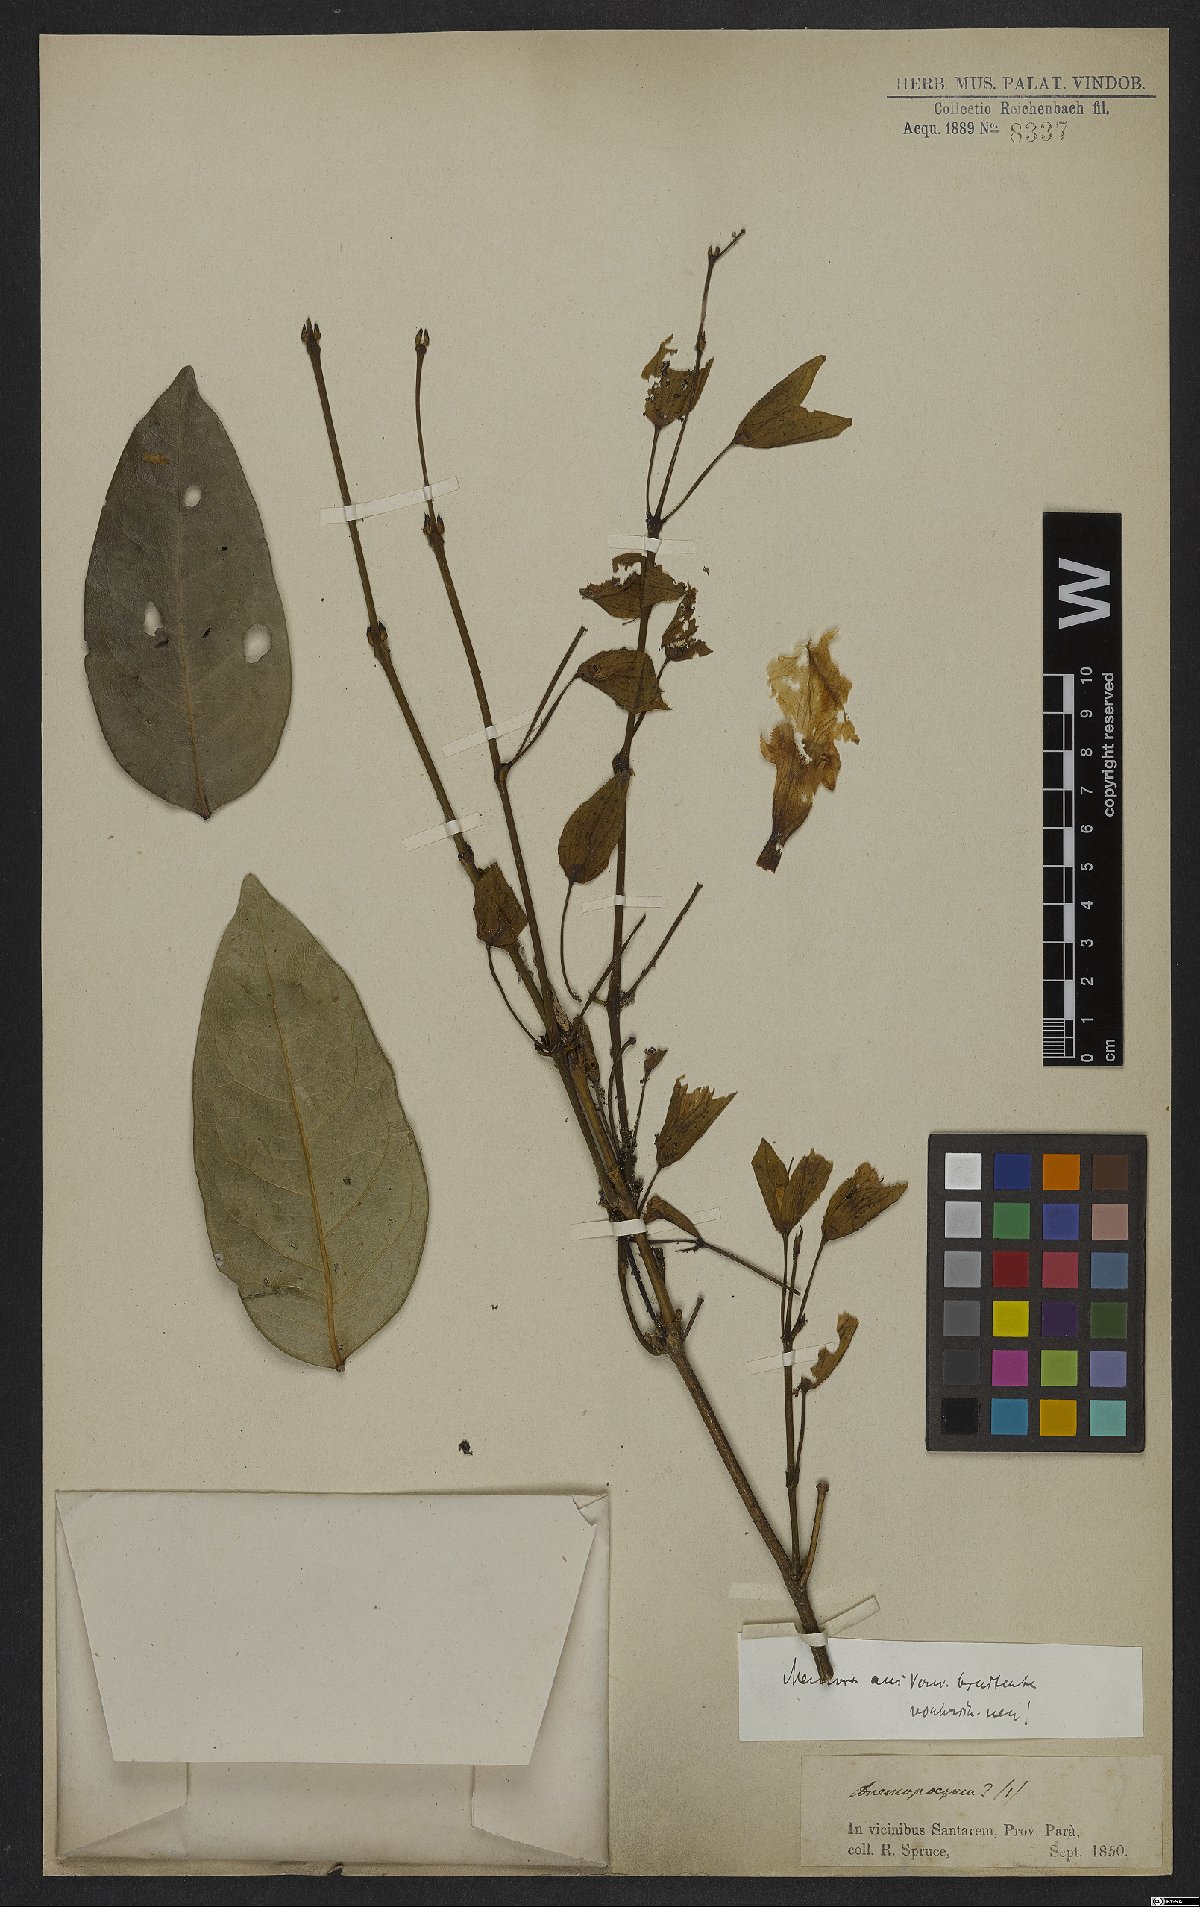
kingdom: Plantae
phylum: Tracheophyta
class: Magnoliopsida
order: Lamiales
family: Bignoniaceae
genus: Adenocalymma
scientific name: Adenocalymma bracteosum
